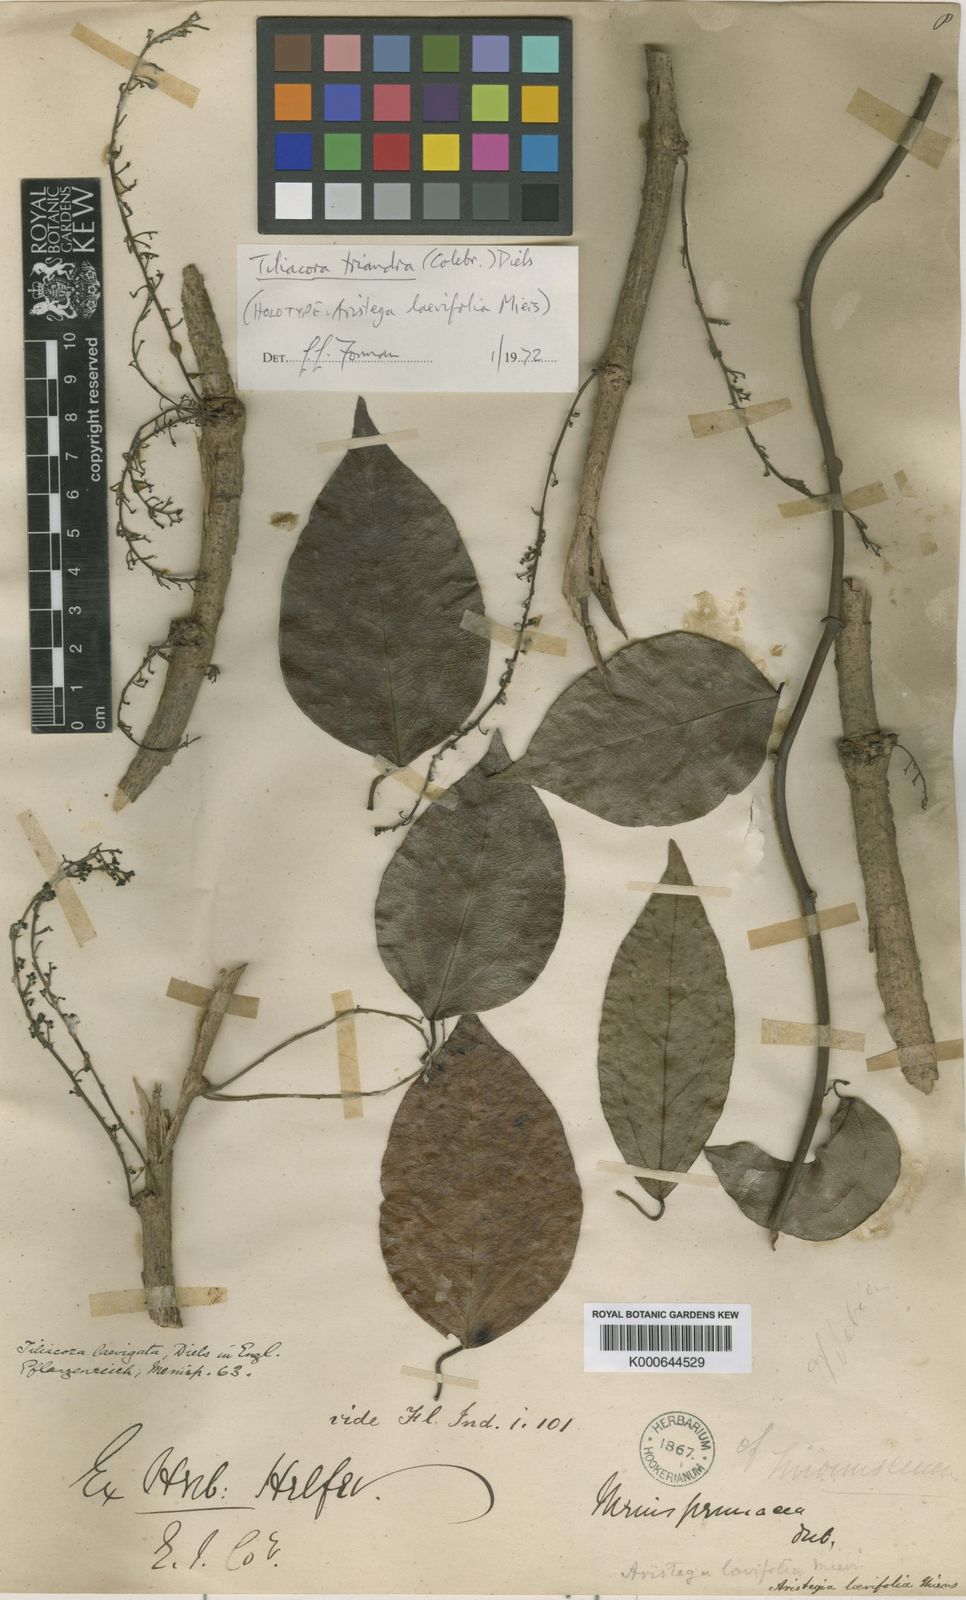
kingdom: Plantae
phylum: Tracheophyta
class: Magnoliopsida
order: Ranunculales
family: Menispermaceae
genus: Tiliacora
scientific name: Tiliacora triandra
